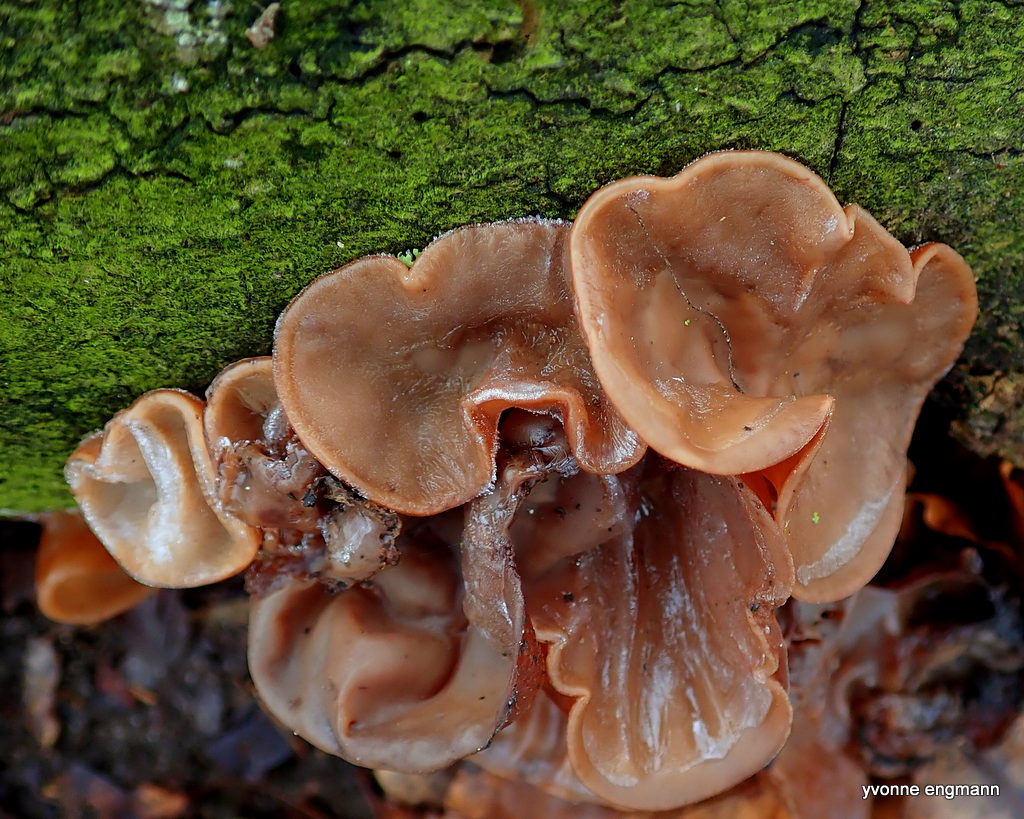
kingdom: Fungi
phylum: Basidiomycota
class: Agaricomycetes
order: Auriculariales
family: Auriculariaceae
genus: Auricularia
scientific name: Auricularia auricula-judae
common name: almindelig judasøre
